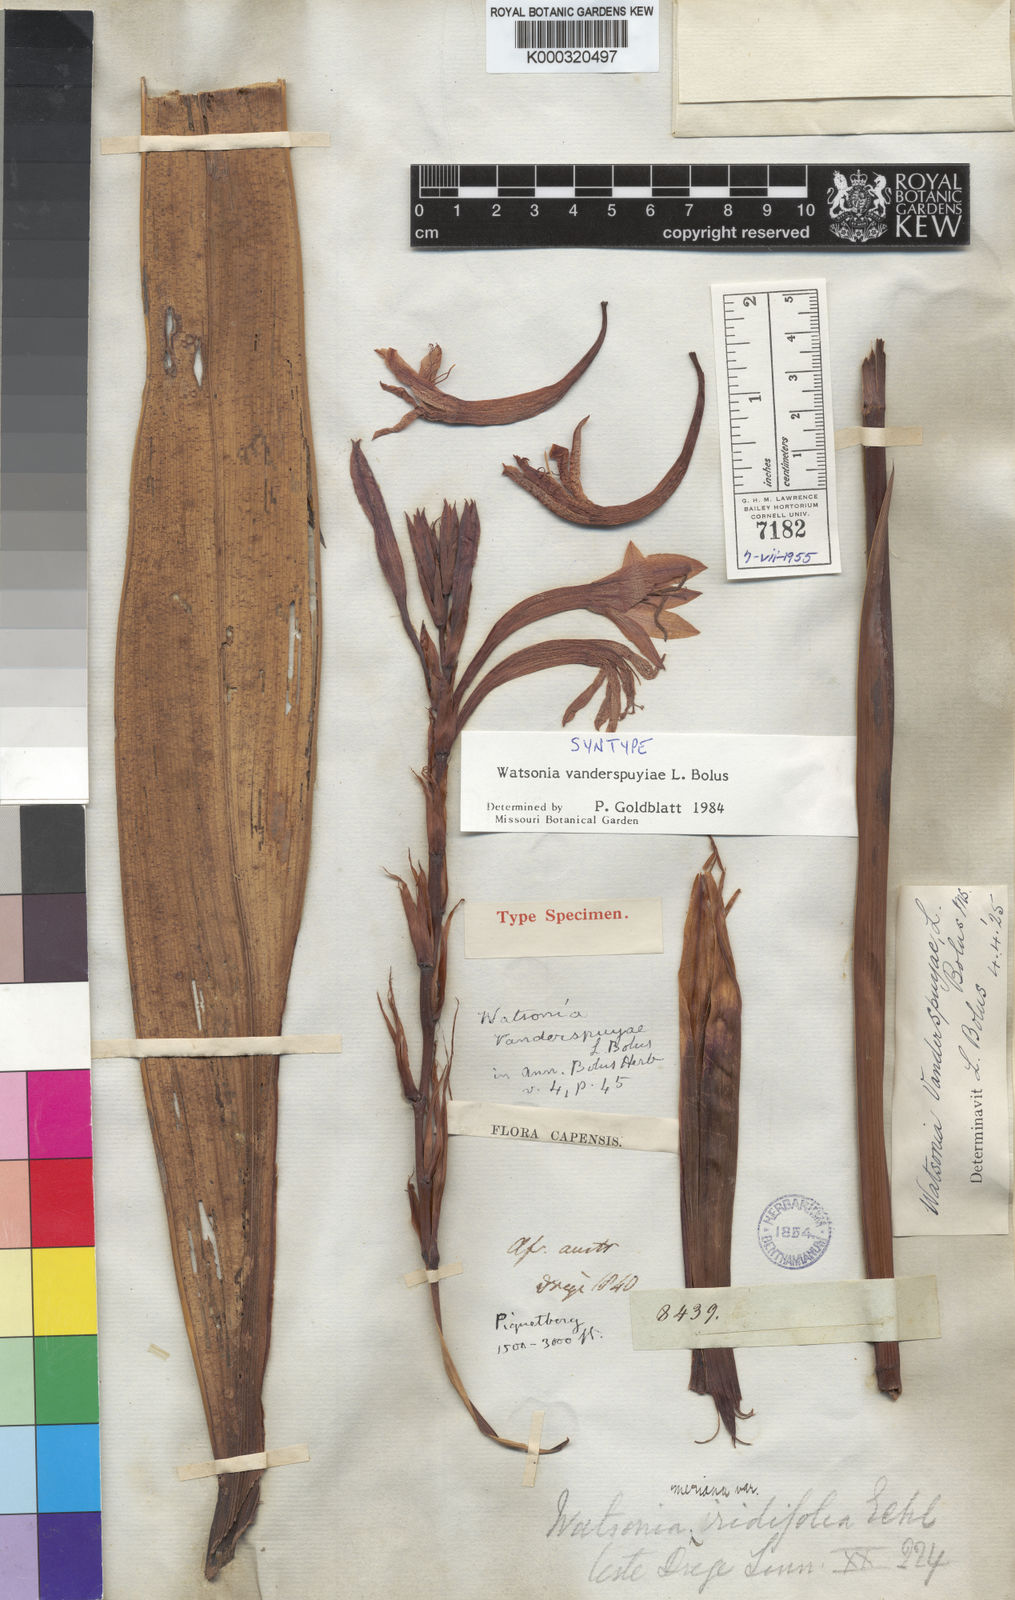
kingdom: Plantae
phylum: Tracheophyta
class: Liliopsida
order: Asparagales
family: Iridaceae
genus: Watsonia
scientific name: Watsonia vanderspuyae
